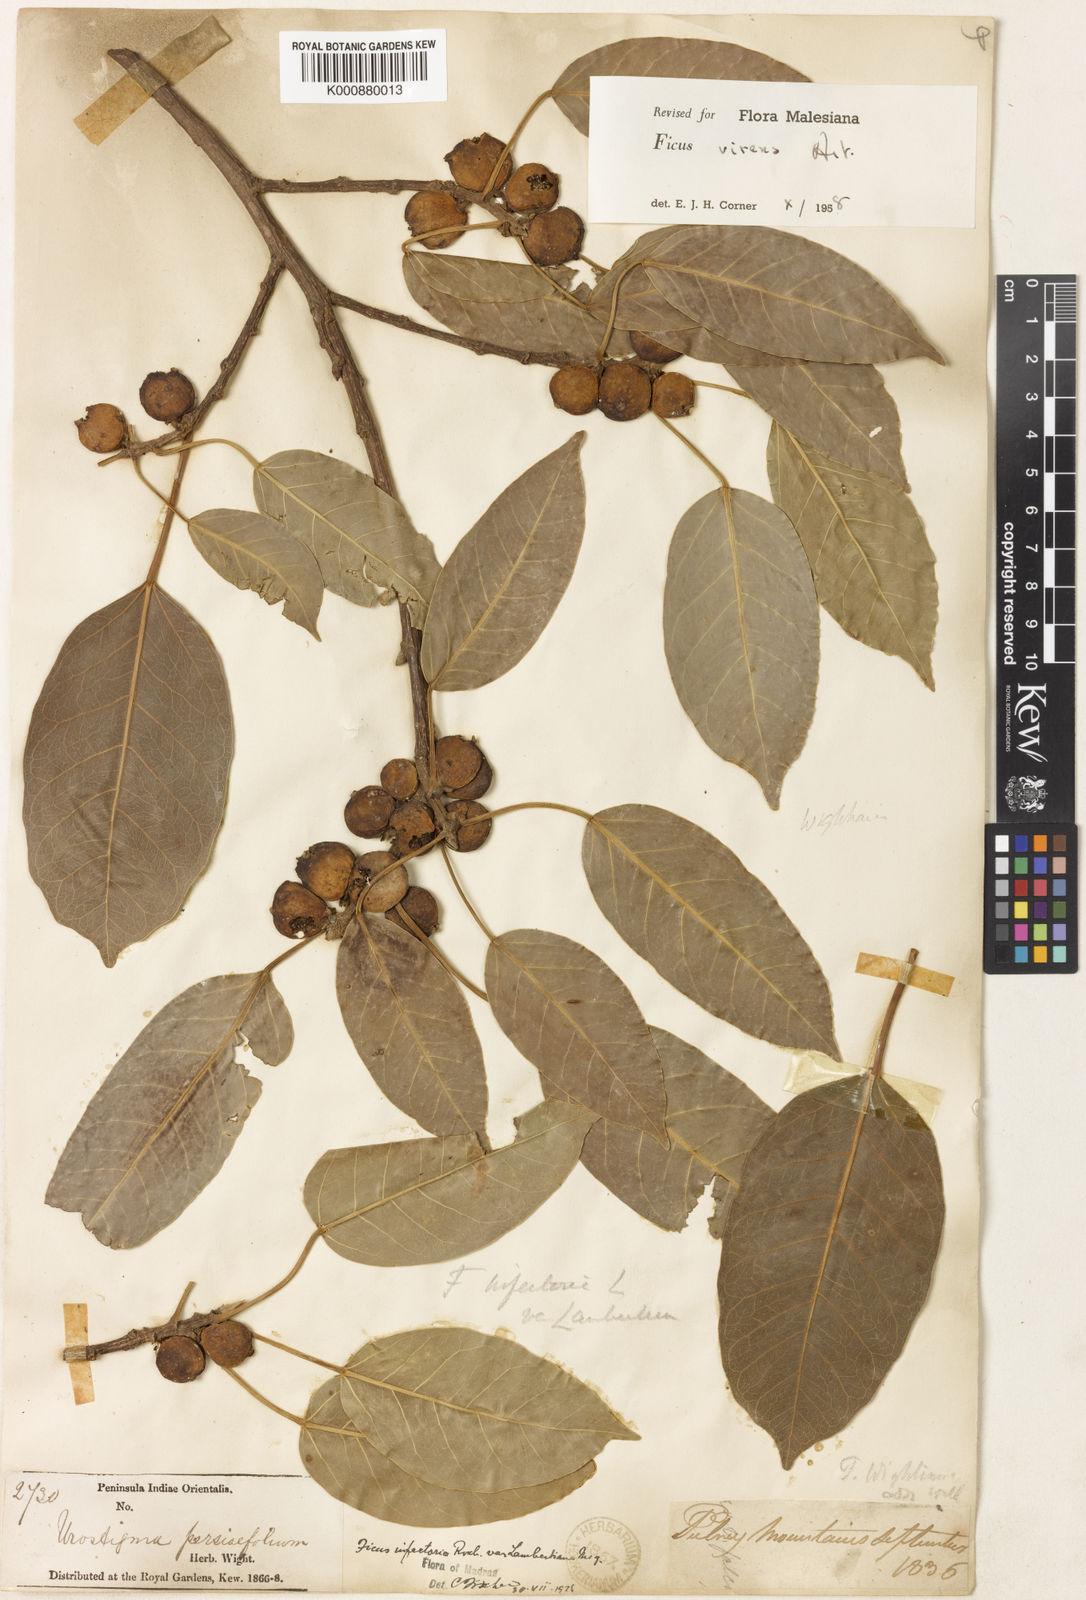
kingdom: Plantae
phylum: Tracheophyta
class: Magnoliopsida
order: Rosales
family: Moraceae
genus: Ficus
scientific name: Ficus virens
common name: Spotted fig
